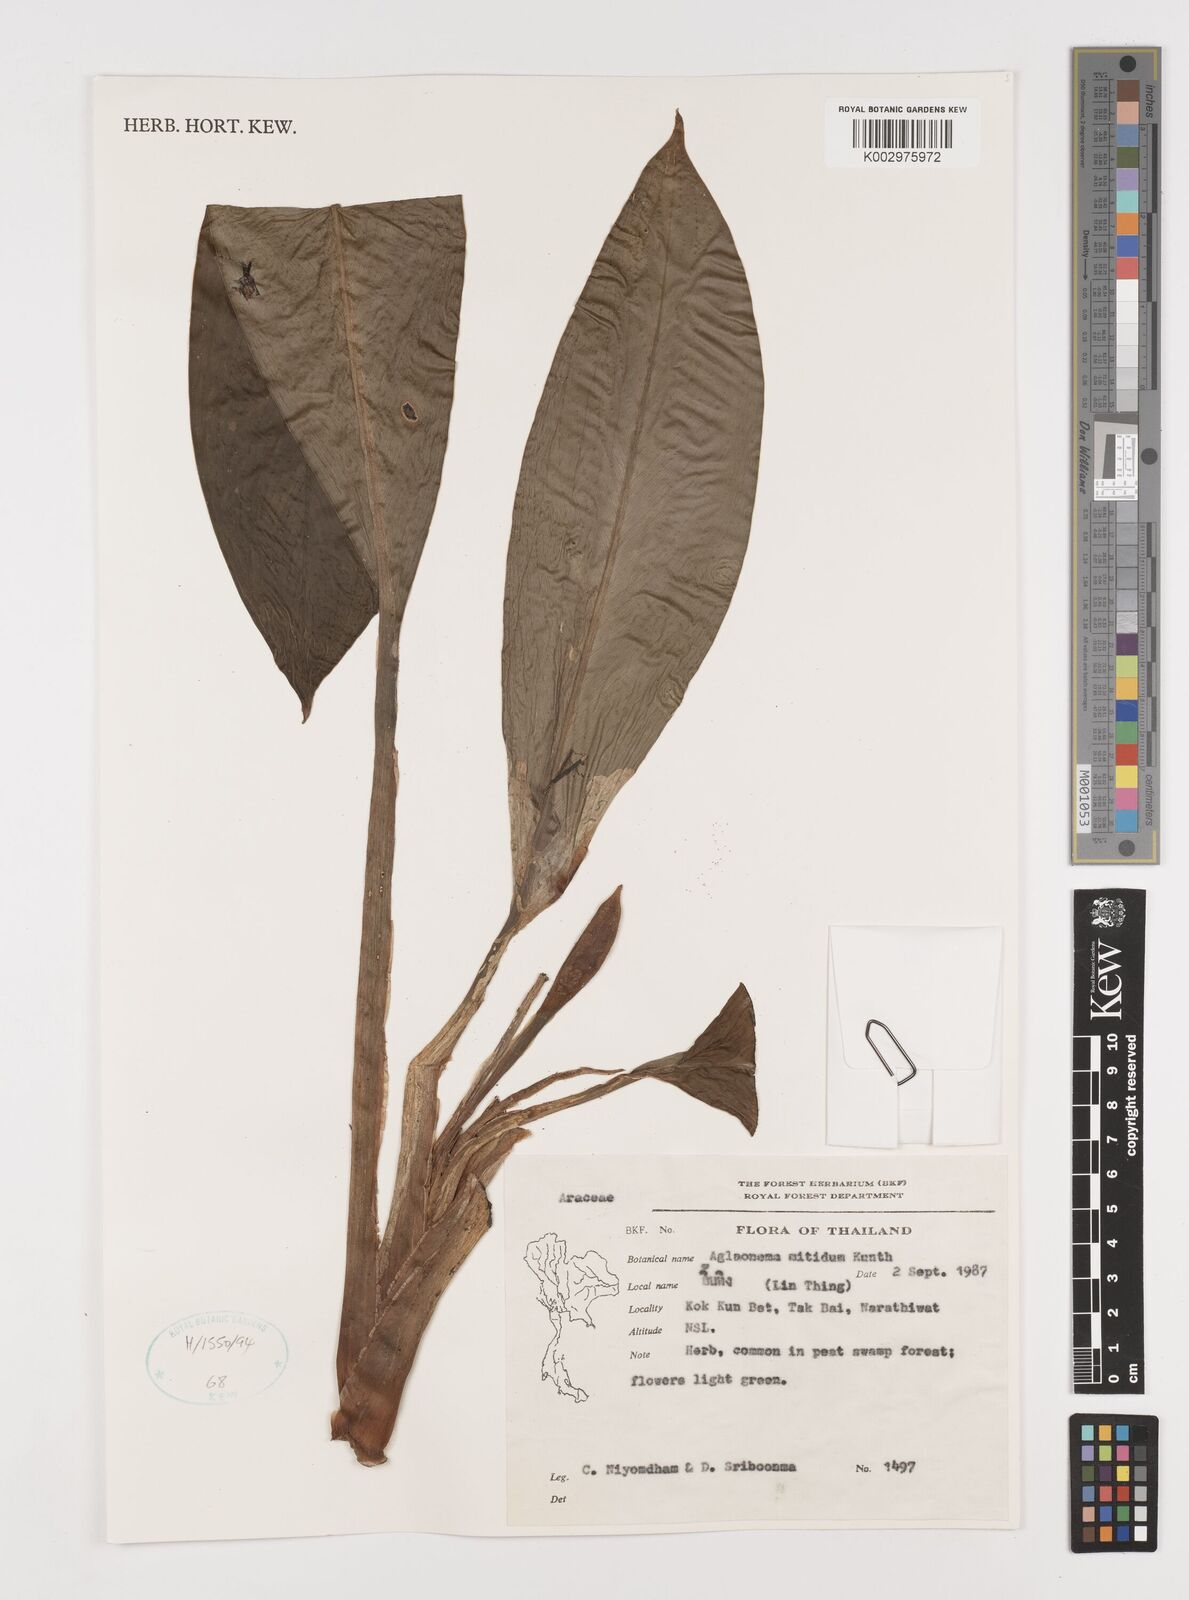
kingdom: Plantae
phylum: Tracheophyta
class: Liliopsida
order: Alismatales
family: Araceae
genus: Aglaonema
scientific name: Aglaonema nitidum
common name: Aglaonema aroid
